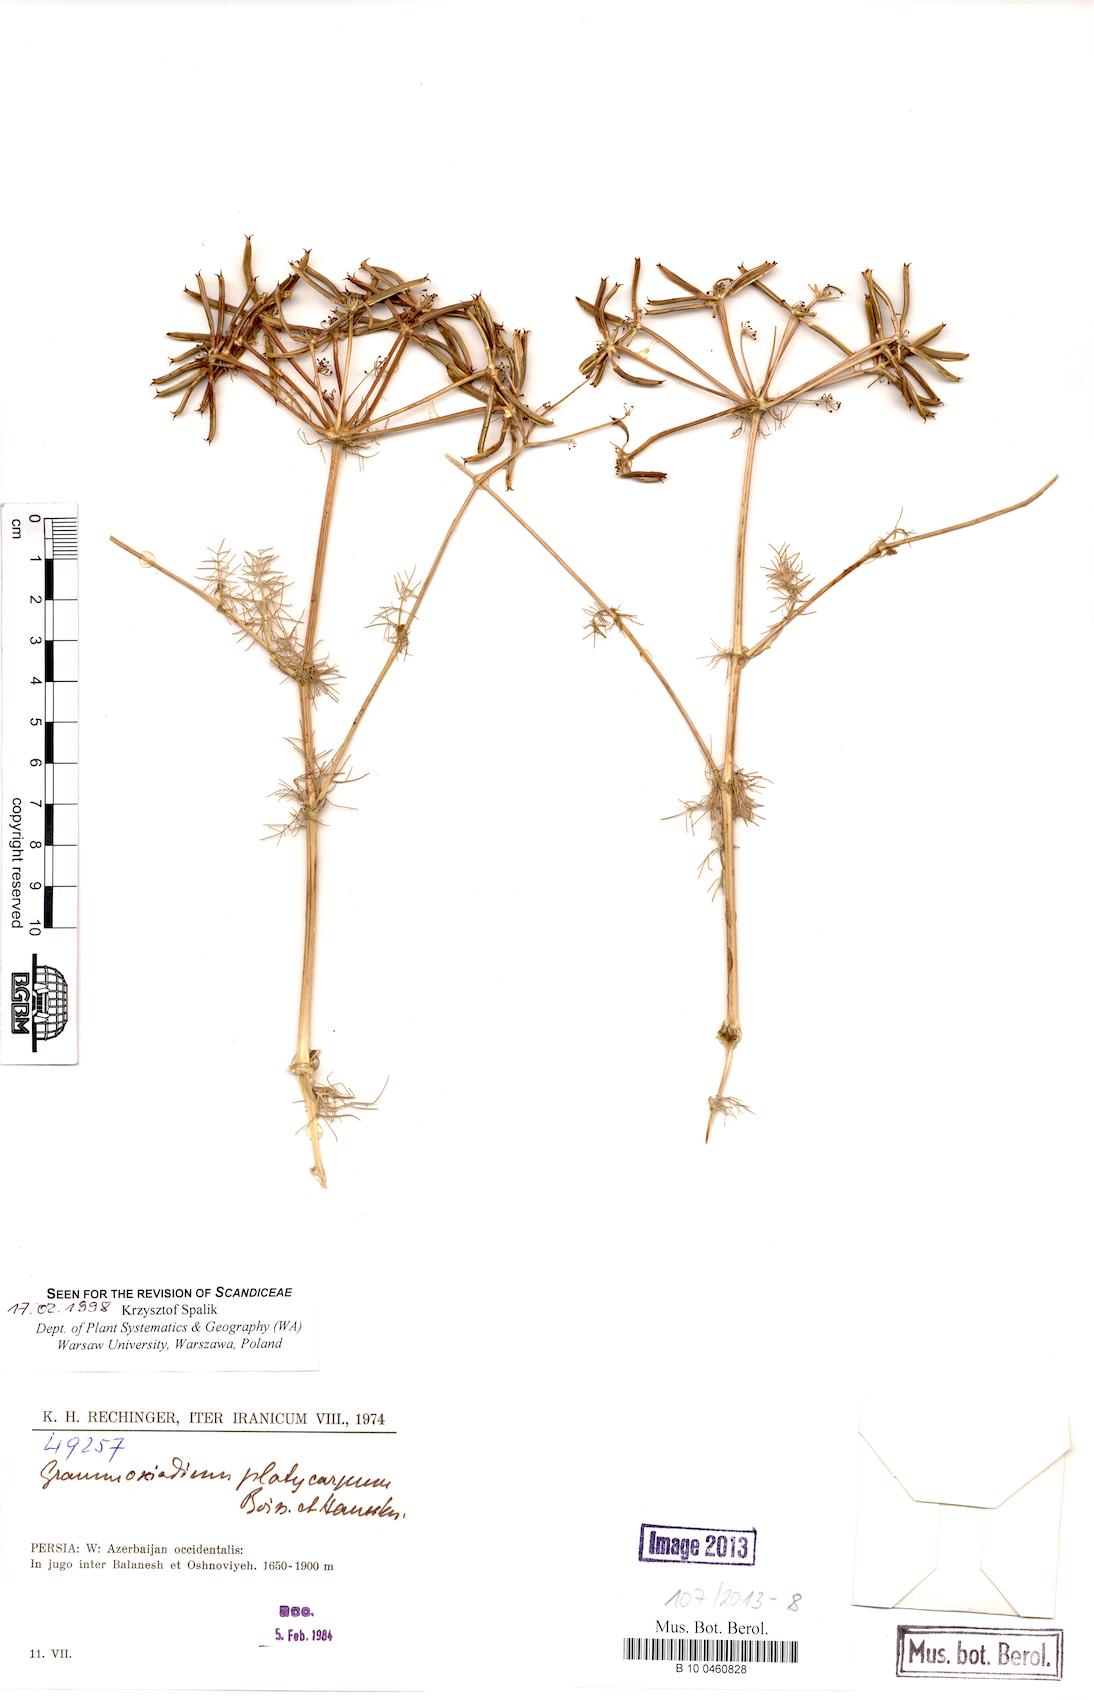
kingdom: Plantae
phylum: Tracheophyta
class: Magnoliopsida
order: Apiales
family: Apiaceae
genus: Caropodium
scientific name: Caropodium platycarpum
